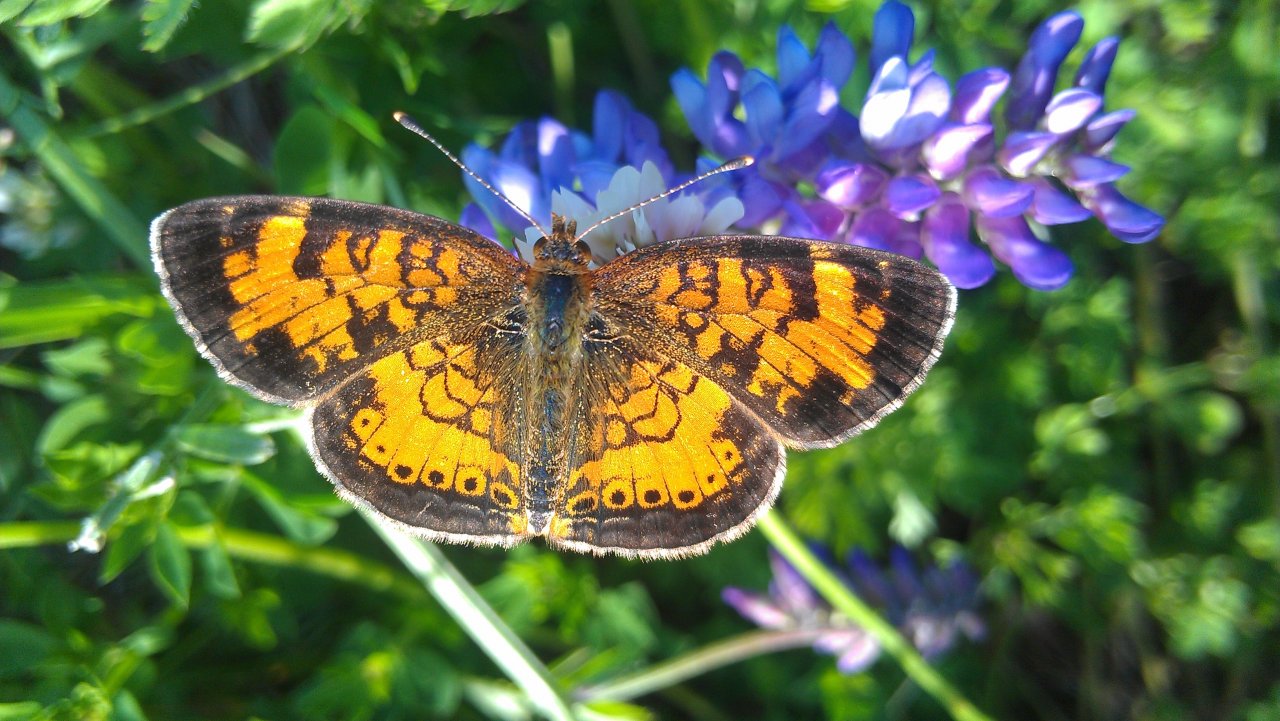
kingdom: Animalia
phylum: Arthropoda
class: Insecta
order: Lepidoptera
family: Nymphalidae
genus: Phyciodes
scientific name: Phyciodes tharos
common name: Northern Crescent
